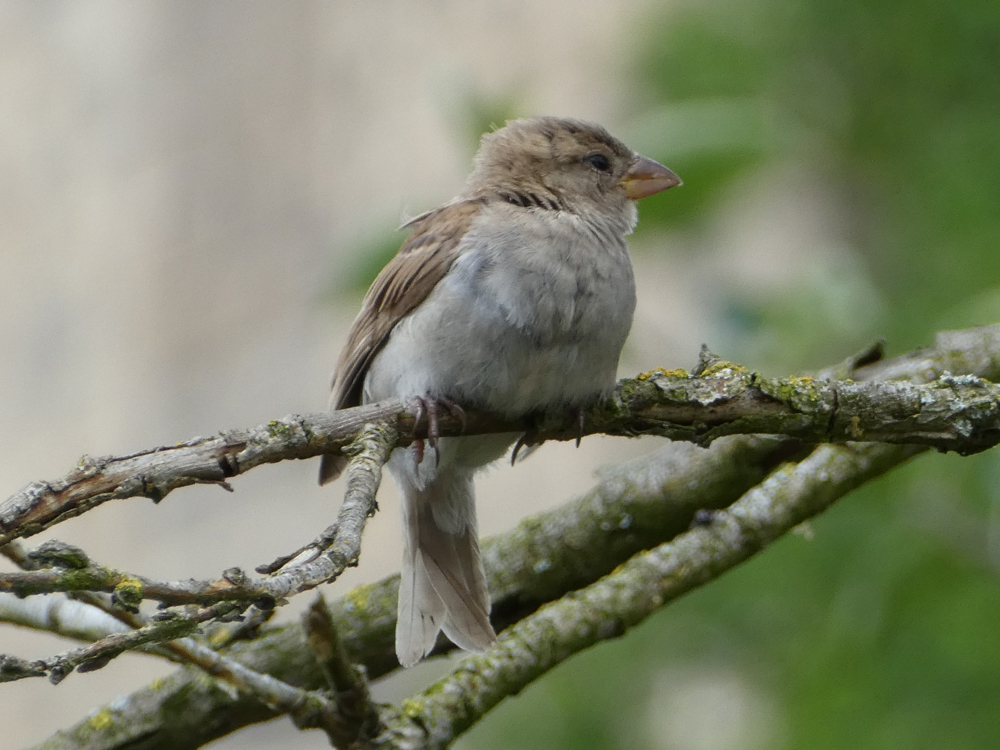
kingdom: Animalia
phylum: Chordata
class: Aves
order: Passeriformes
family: Passeridae
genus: Passer
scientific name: Passer domesticus
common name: House sparrow
